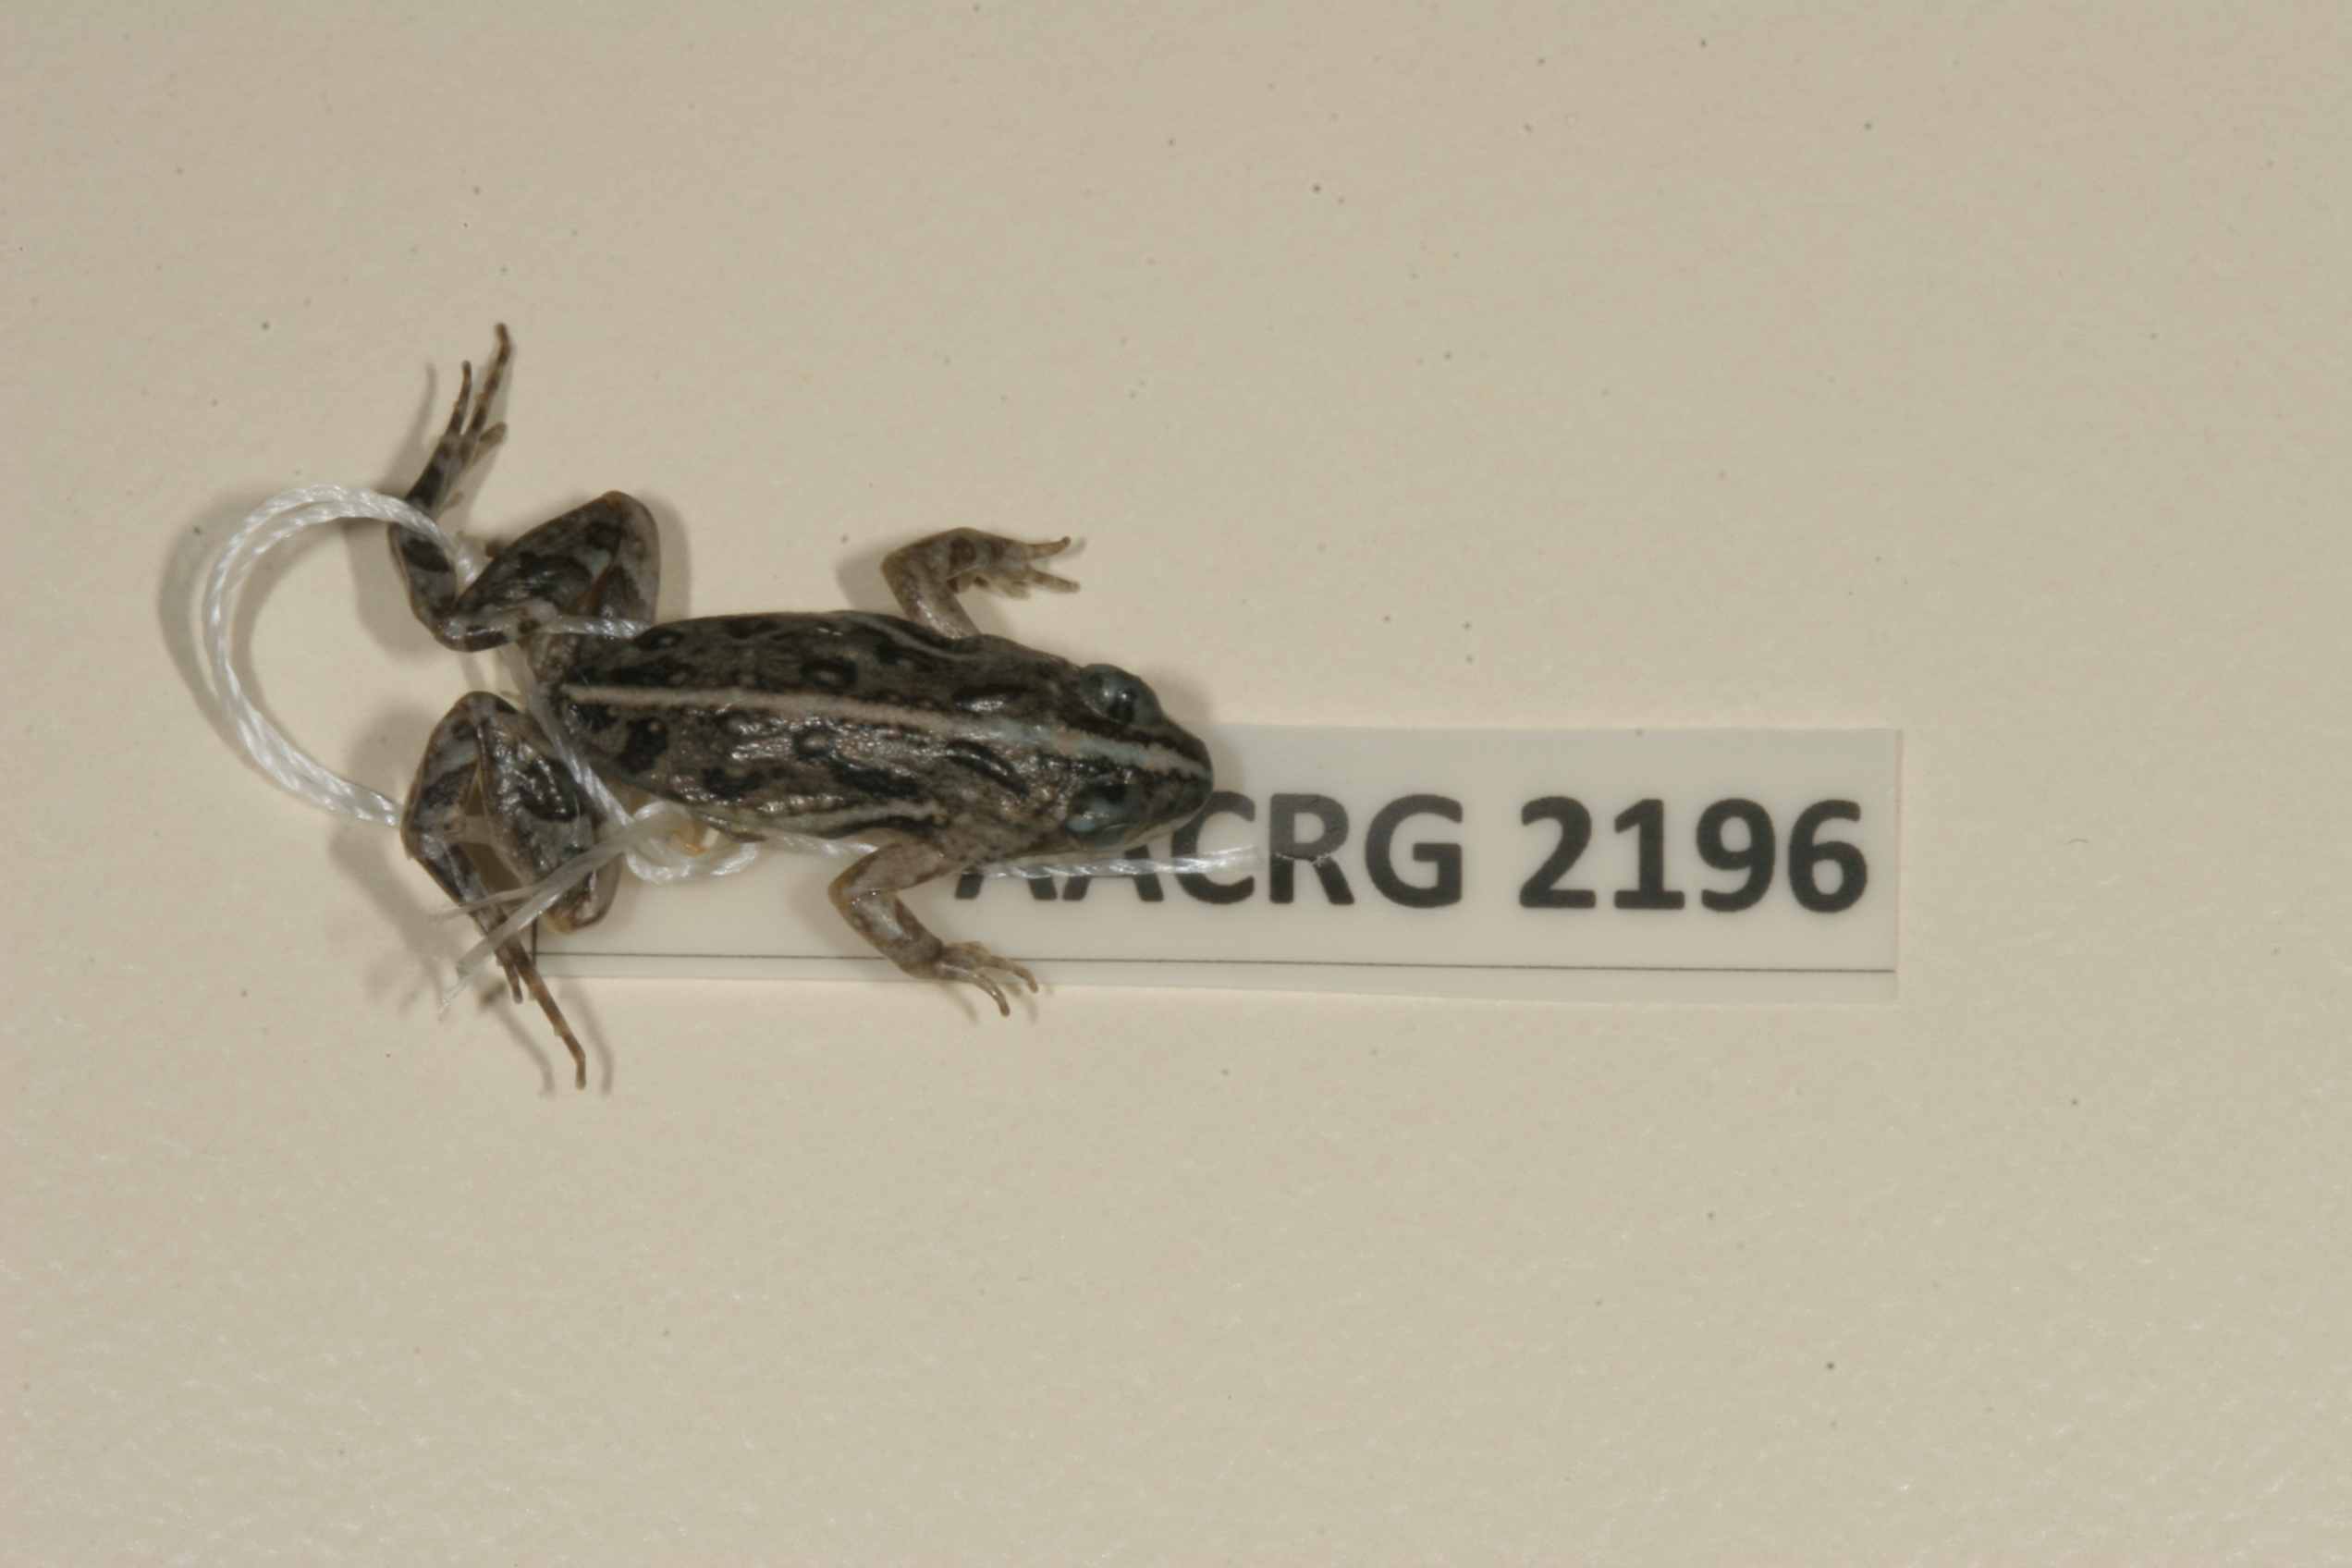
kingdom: Animalia
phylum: Chordata
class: Amphibia
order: Anura
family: Pyxicephalidae
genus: Cacosternum
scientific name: Cacosternum boettgeri
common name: Boettger's frog
